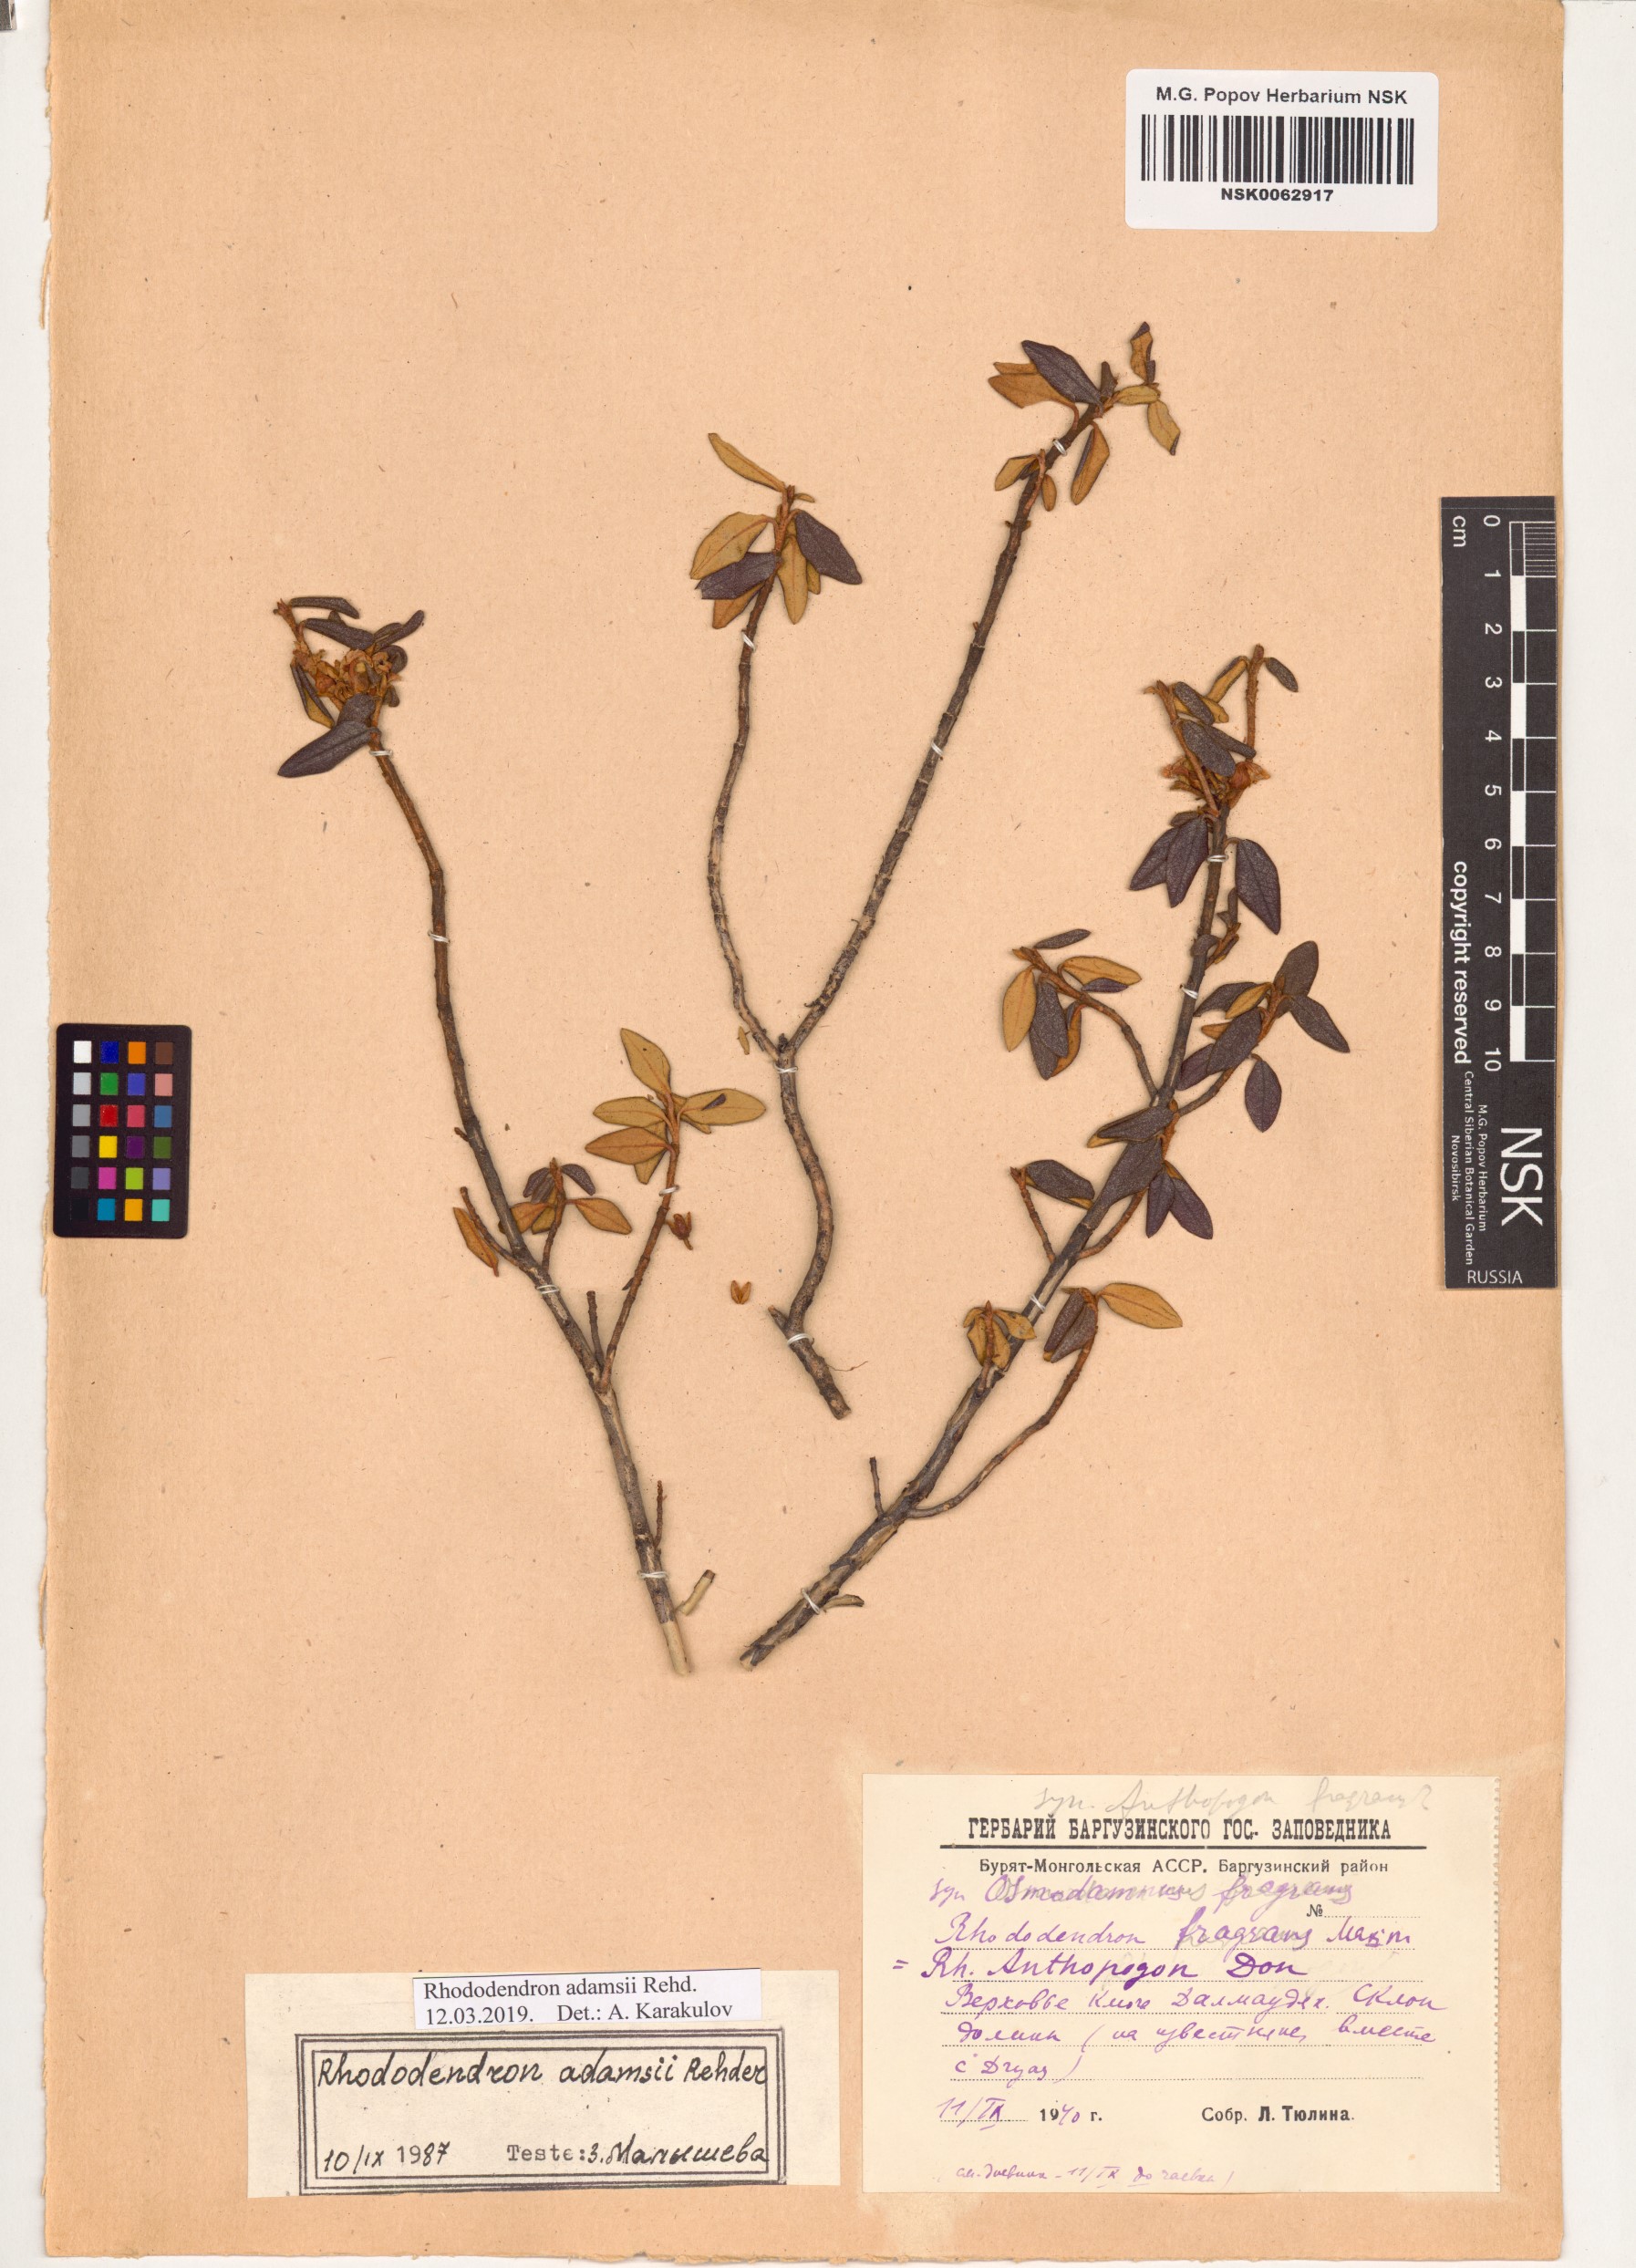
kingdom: Plantae
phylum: Tracheophyta
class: Magnoliopsida
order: Ericales
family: Ericaceae
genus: Rhododendron
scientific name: Rhododendron adamsii
